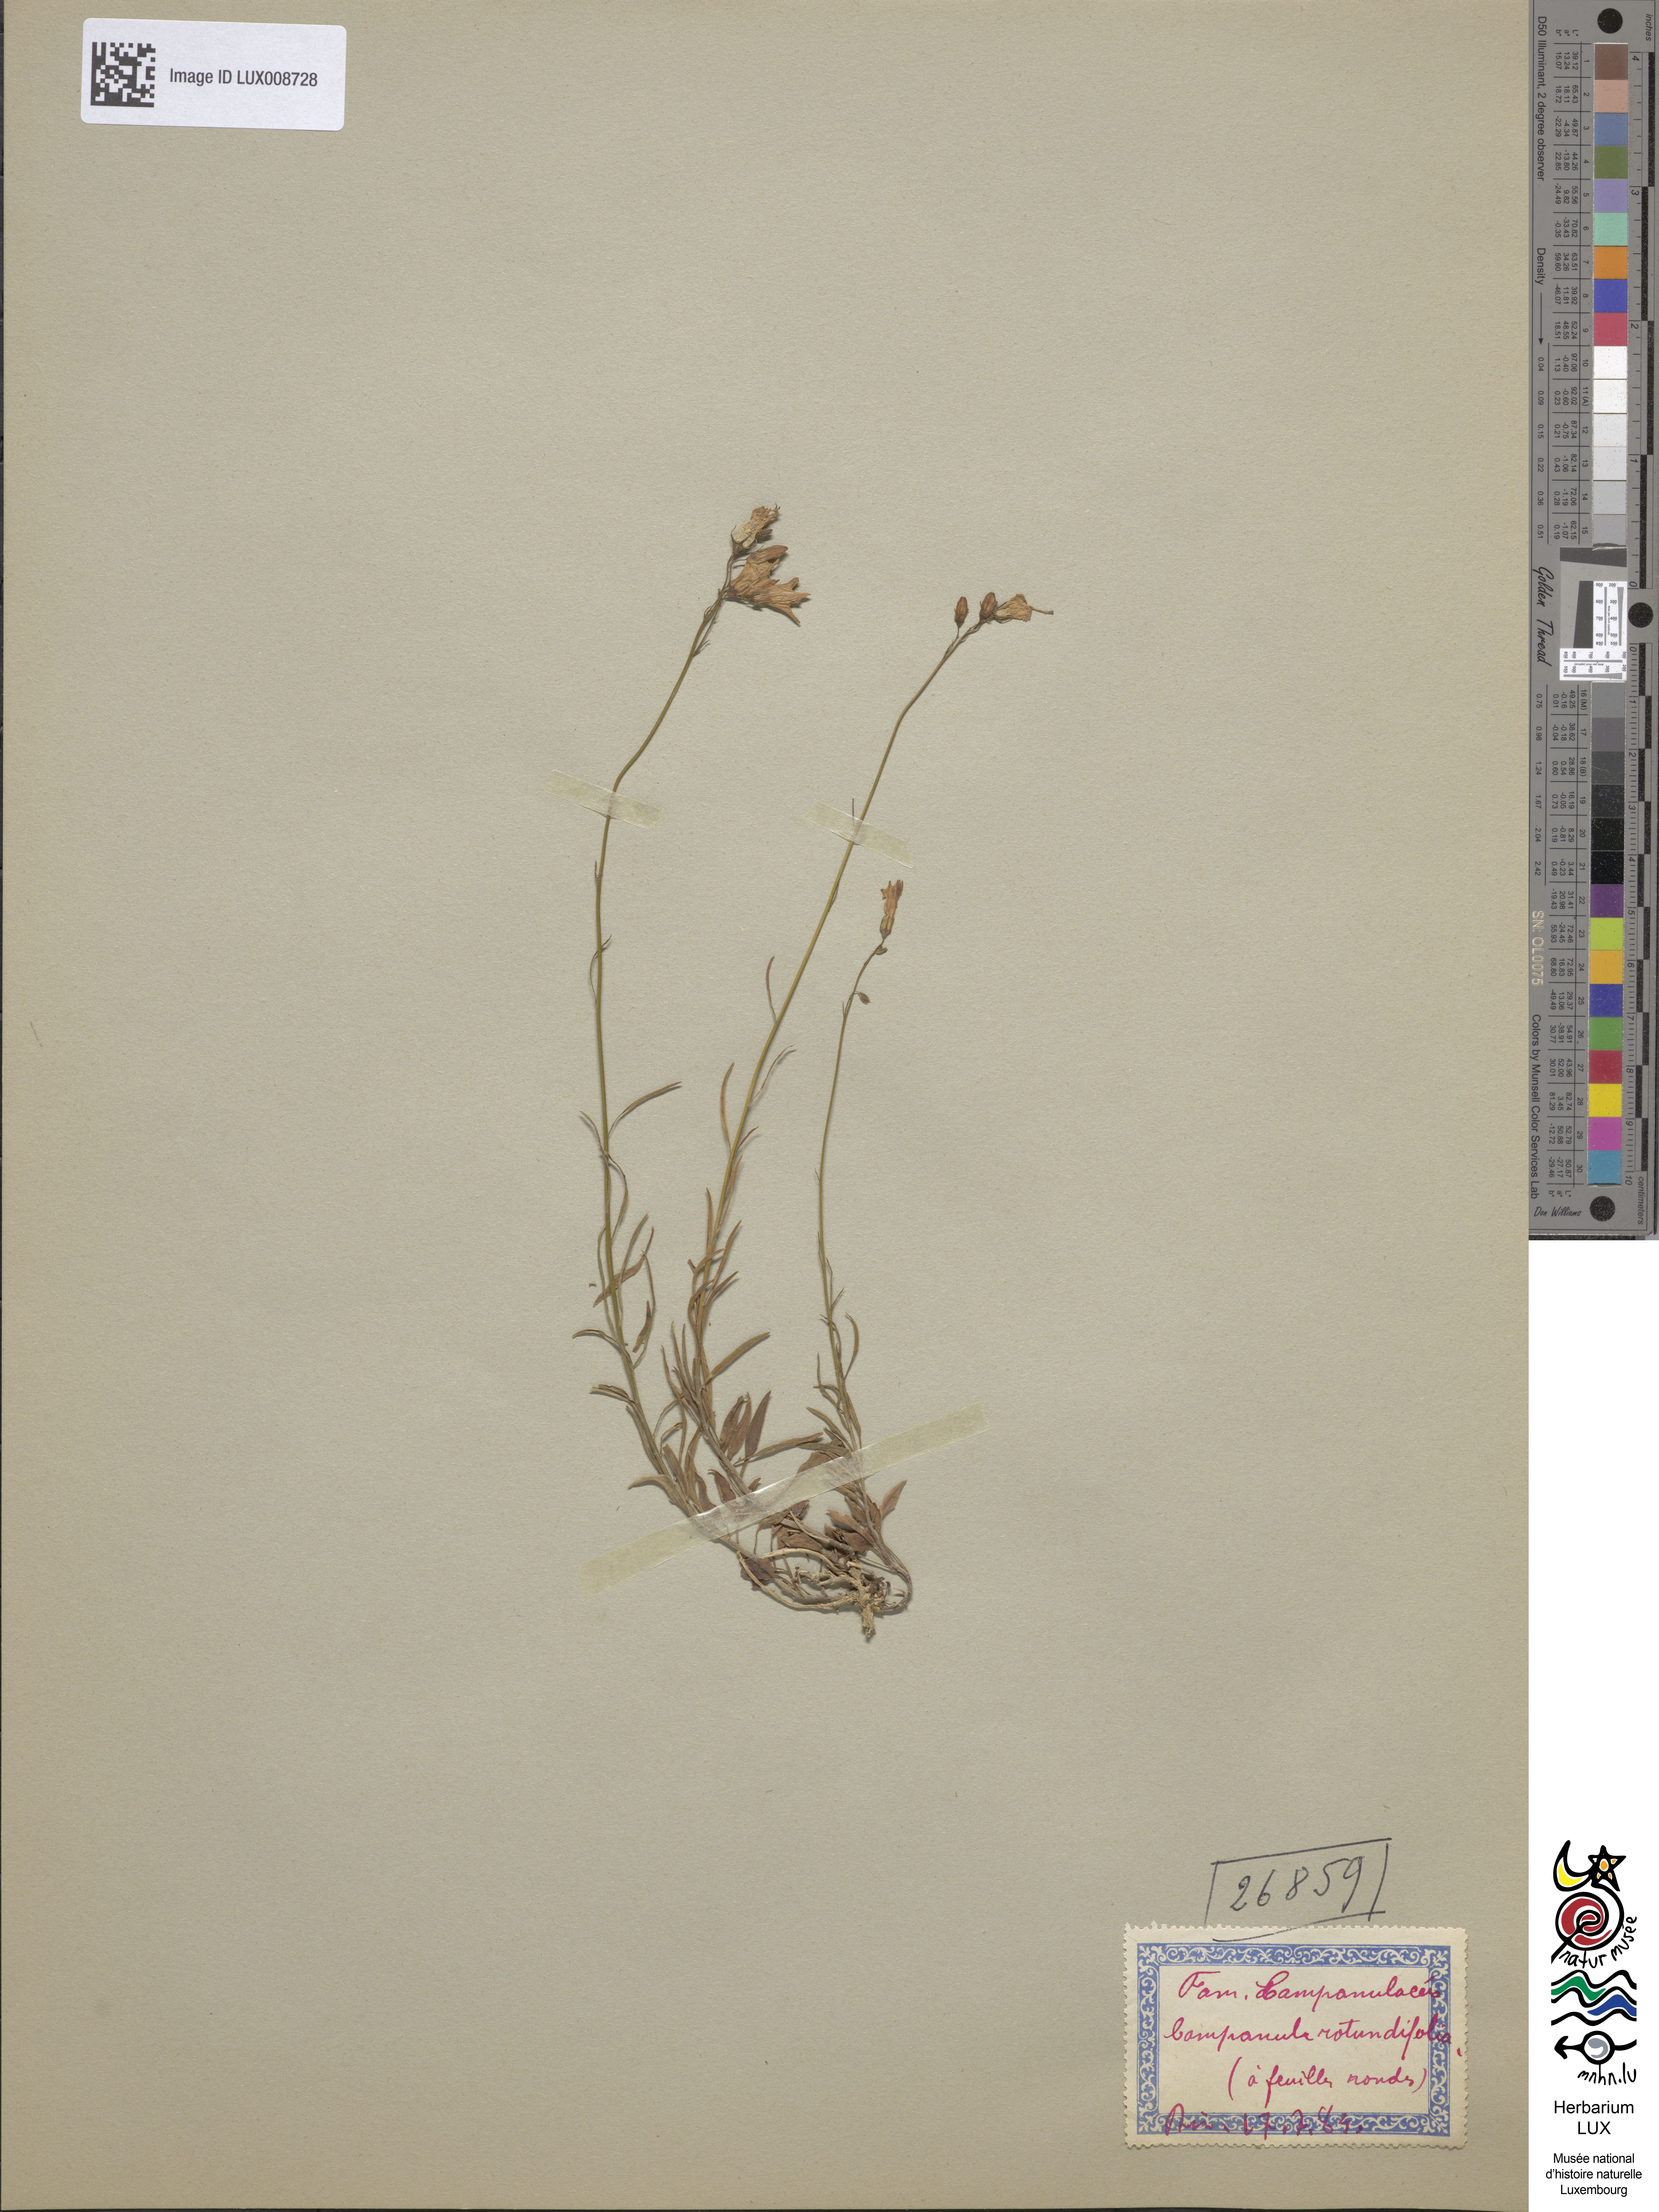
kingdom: Plantae
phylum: Tracheophyta
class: Magnoliopsida
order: Asterales
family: Campanulaceae
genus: Campanula
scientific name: Campanula rotundifolia
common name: Harebell
